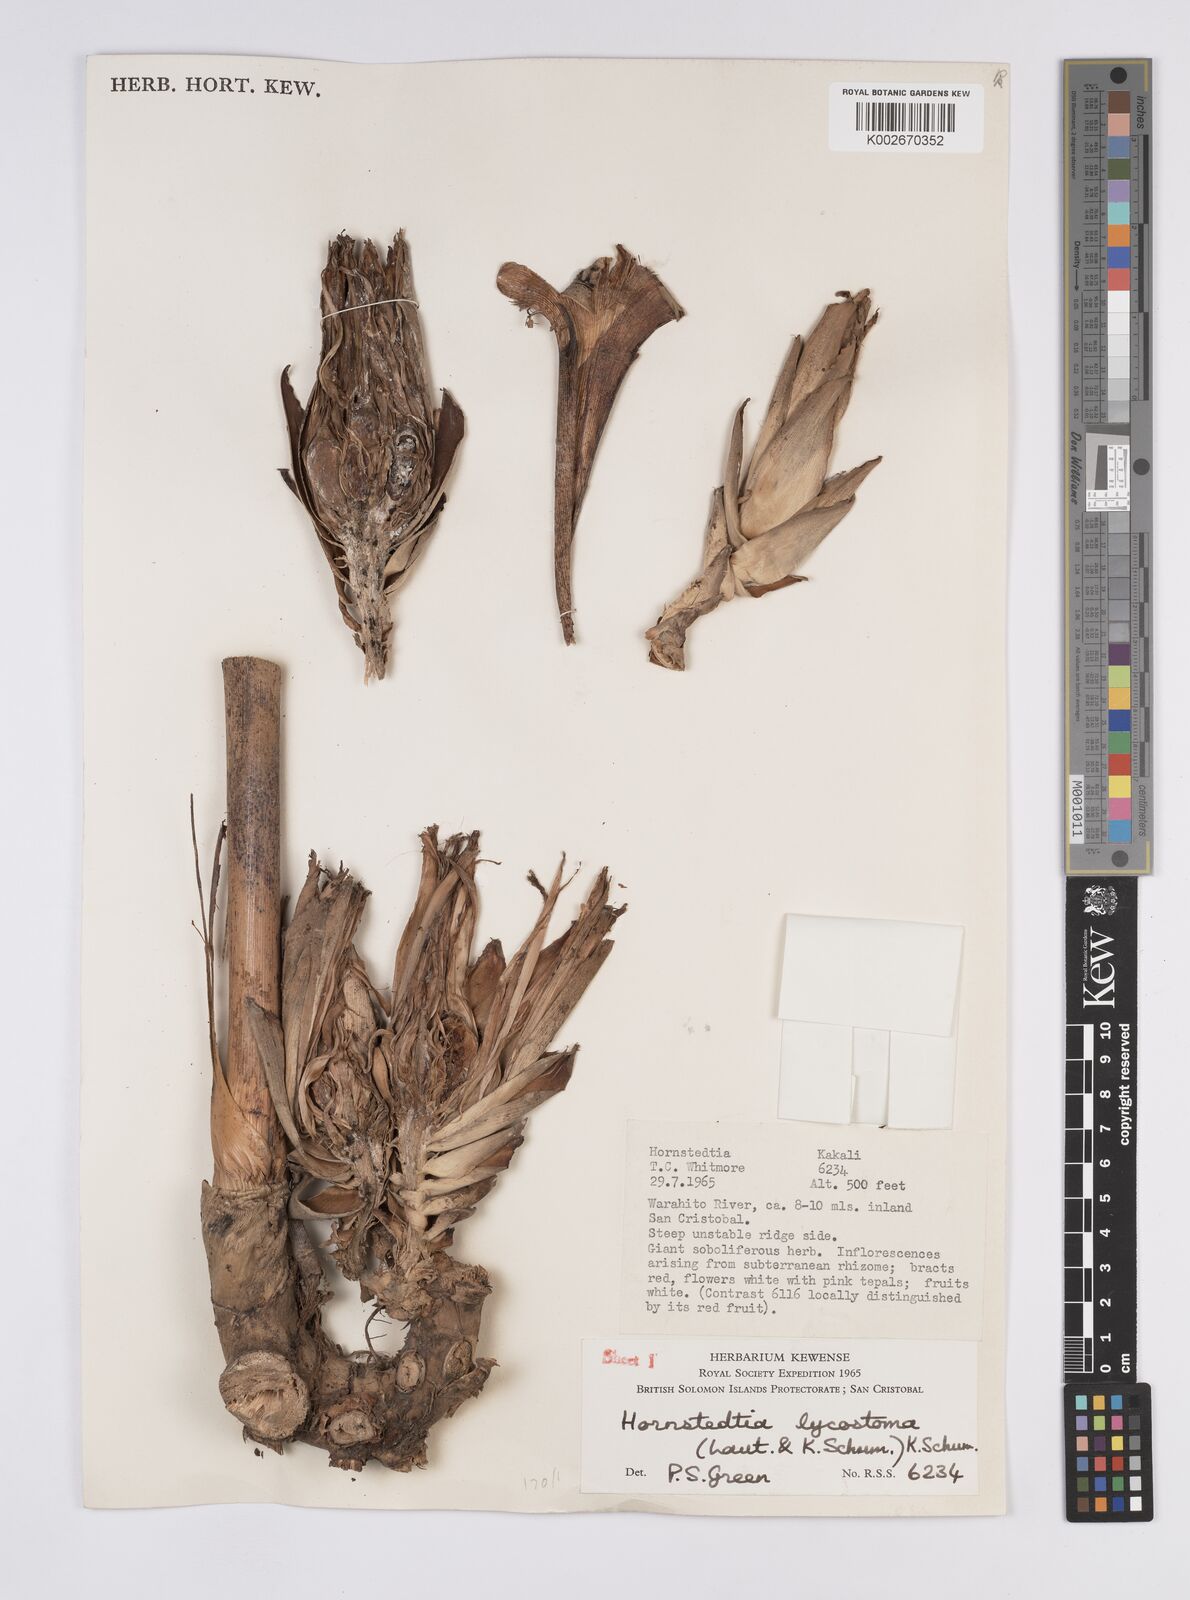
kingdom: Plantae
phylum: Tracheophyta
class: Liliopsida
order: Zingiberales
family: Zingiberaceae
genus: Hornstedtia
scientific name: Hornstedtia scottiana
